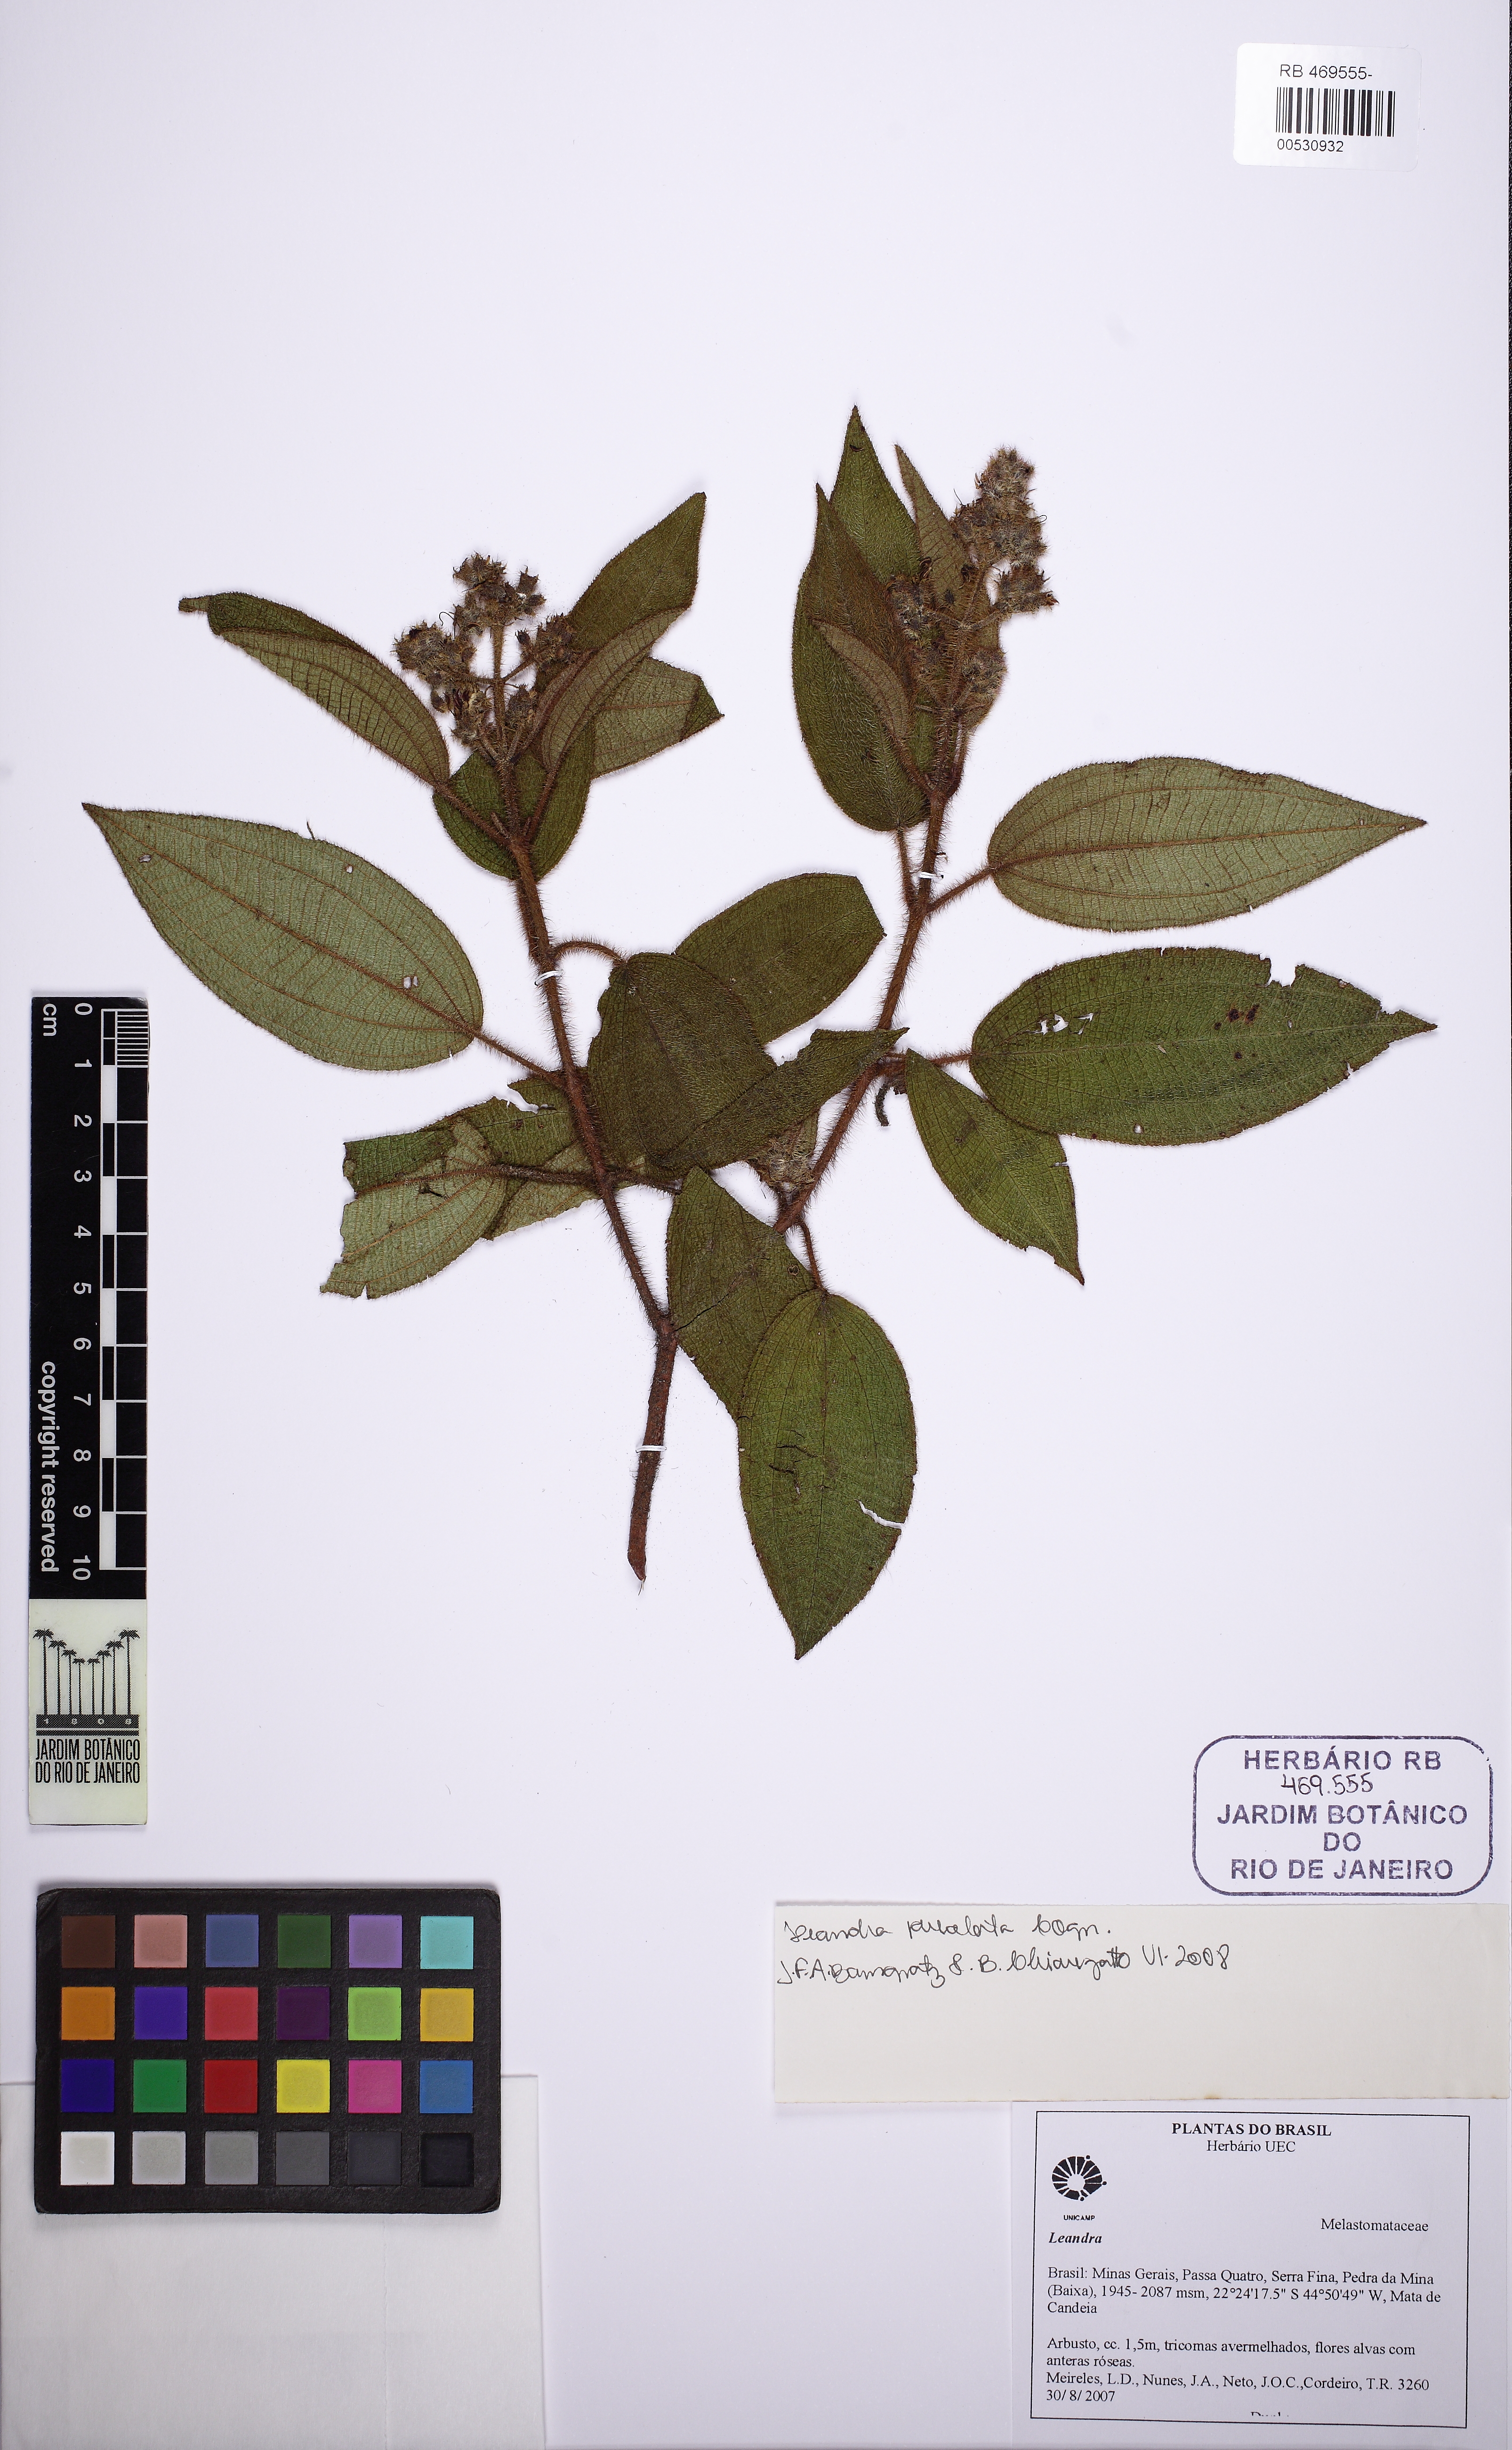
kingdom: Plantae
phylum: Tracheophyta
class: Magnoliopsida
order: Myrtales
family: Melastomataceae
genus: Miconia
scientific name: Miconia
